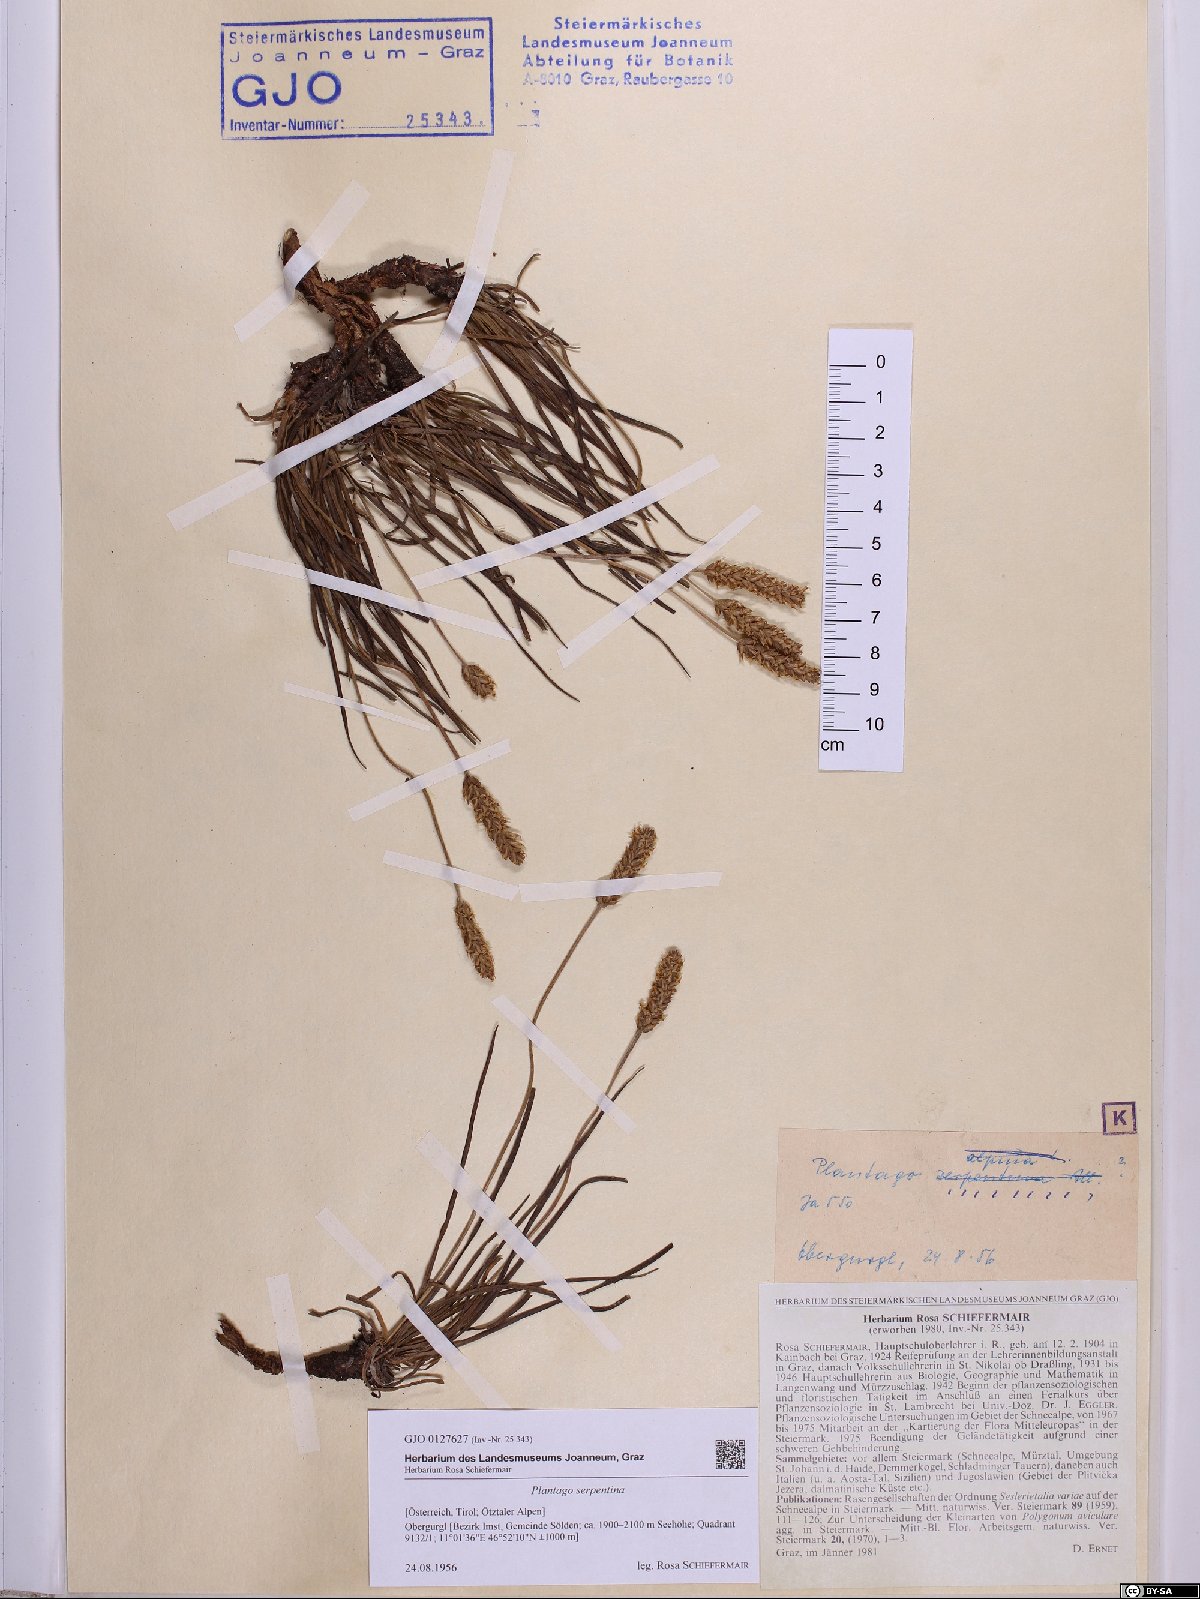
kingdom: Plantae
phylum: Tracheophyta
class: Magnoliopsida
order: Lamiales
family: Plantaginaceae
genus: Plantago
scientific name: Plantago strictissima
